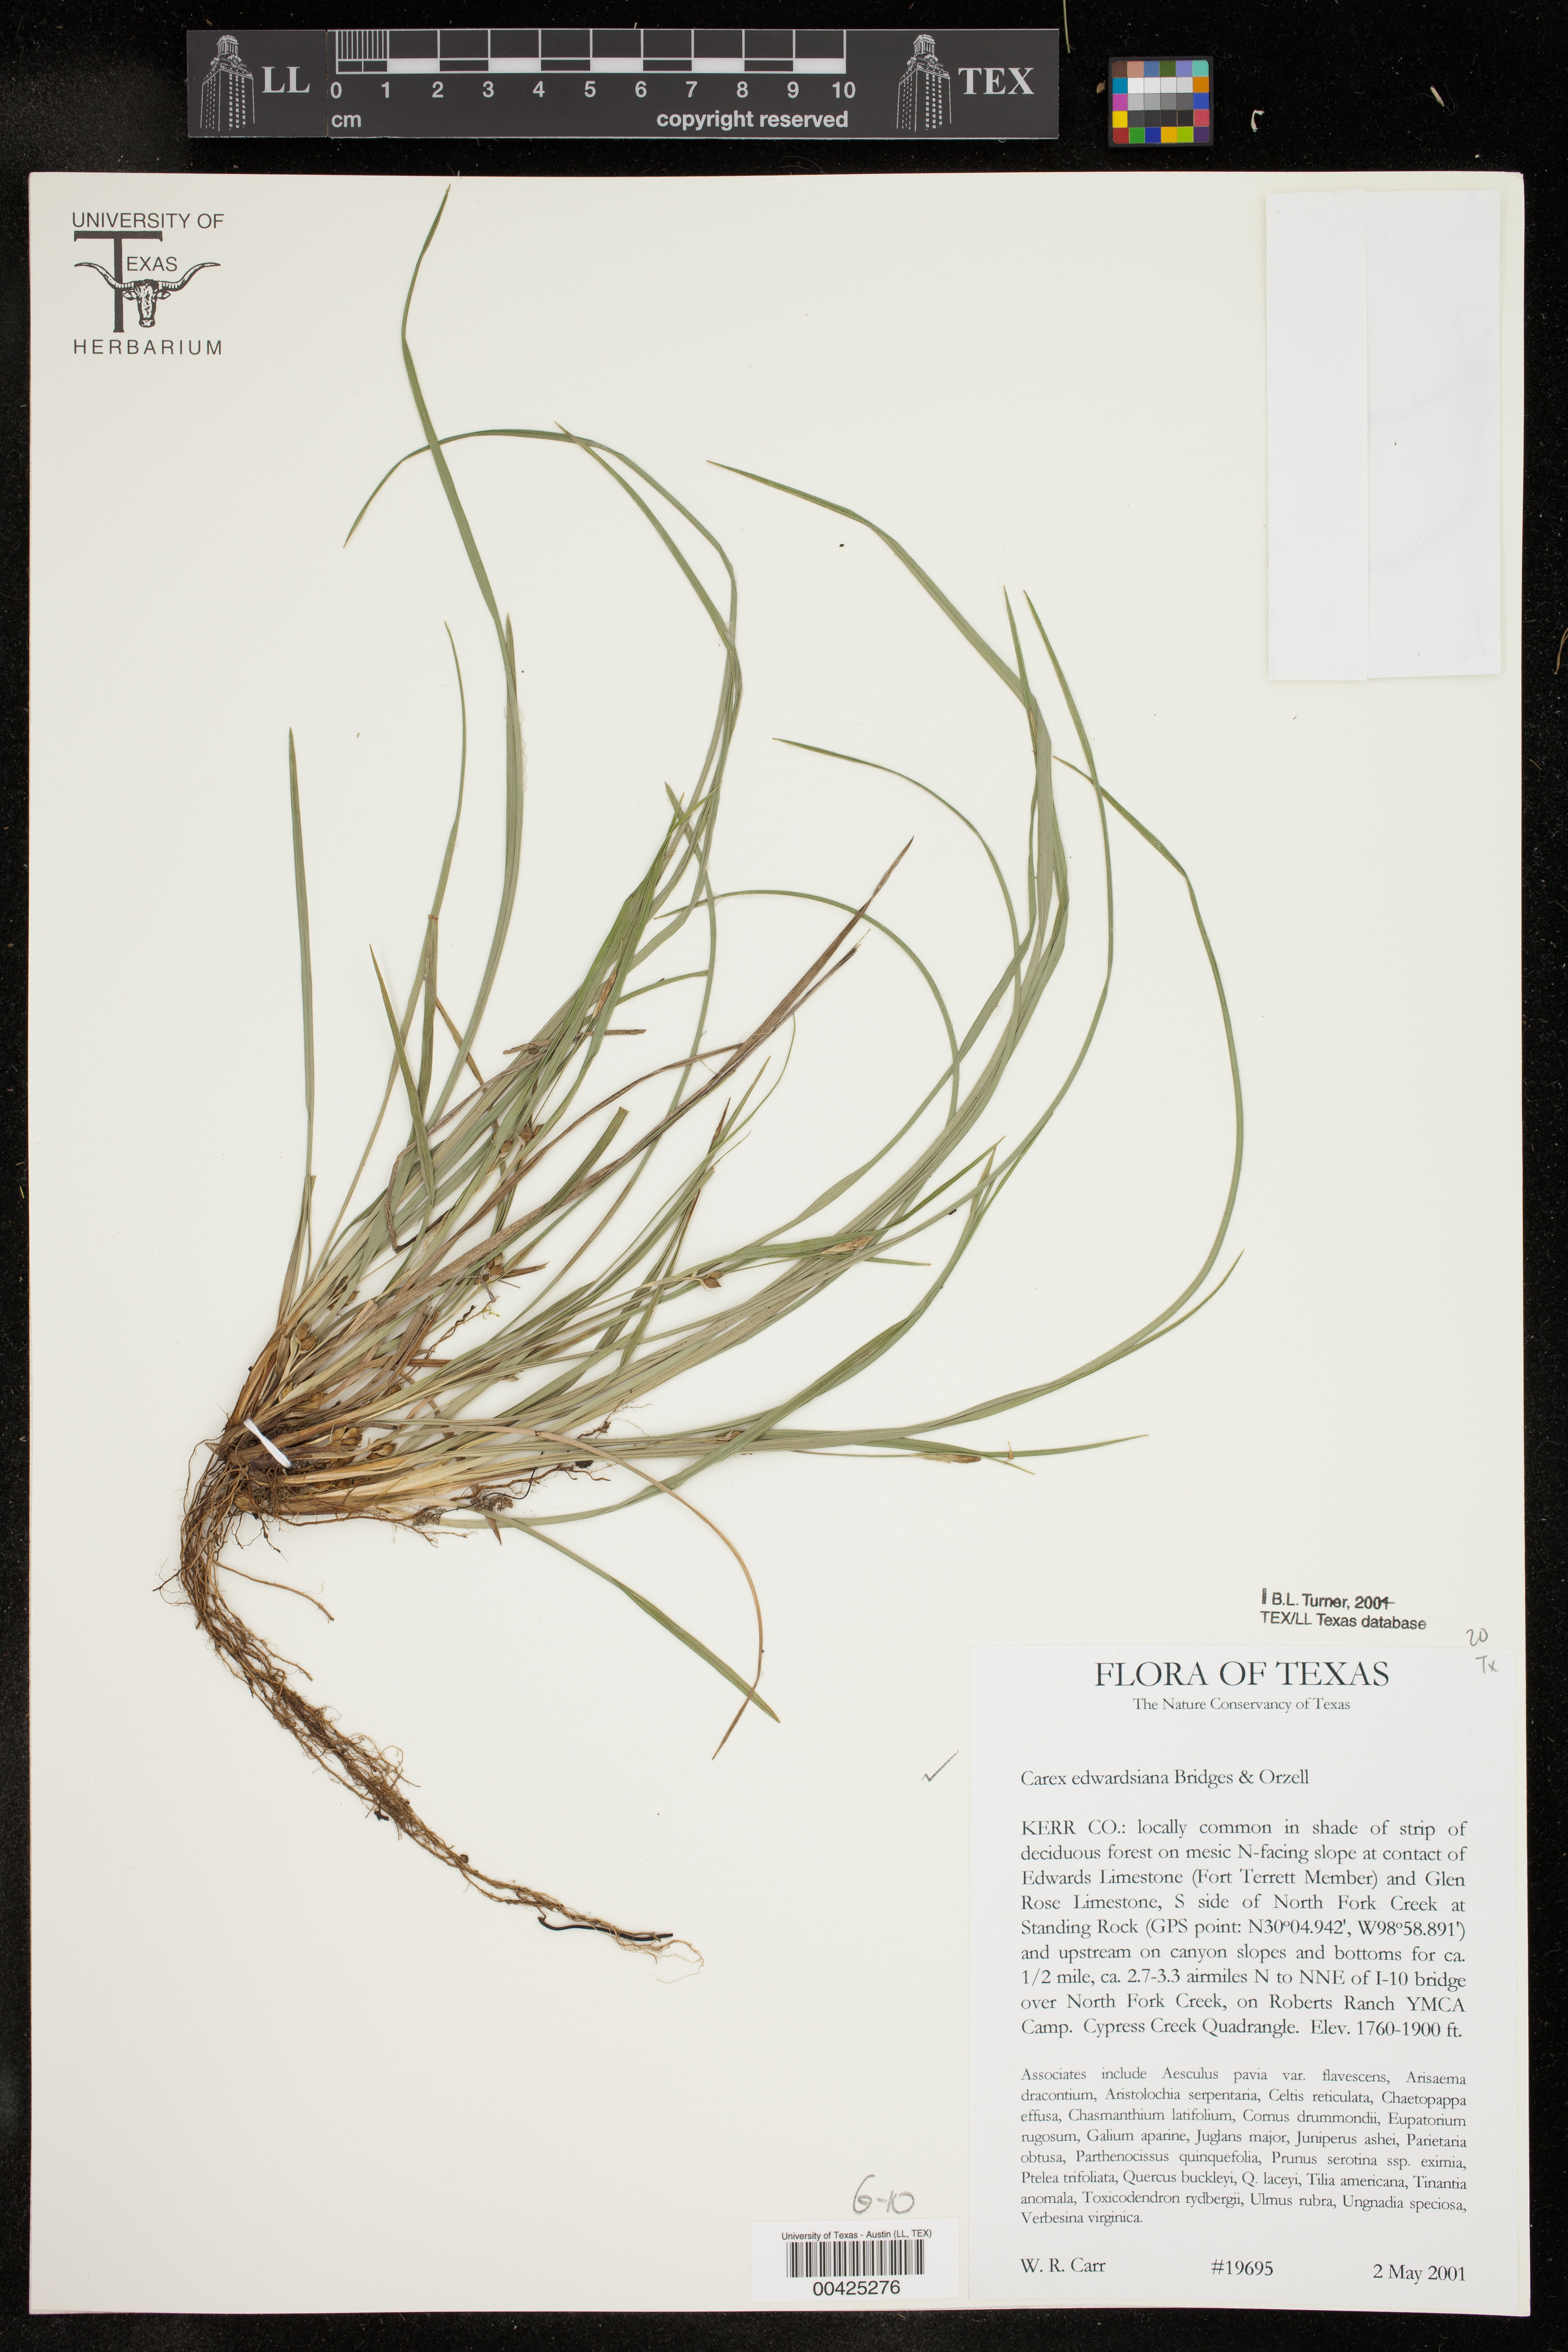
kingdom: Plantae
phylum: Tracheophyta
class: Liliopsida
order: Poales
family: Cyperaceae
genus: Carex
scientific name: Carex edwardsiana
